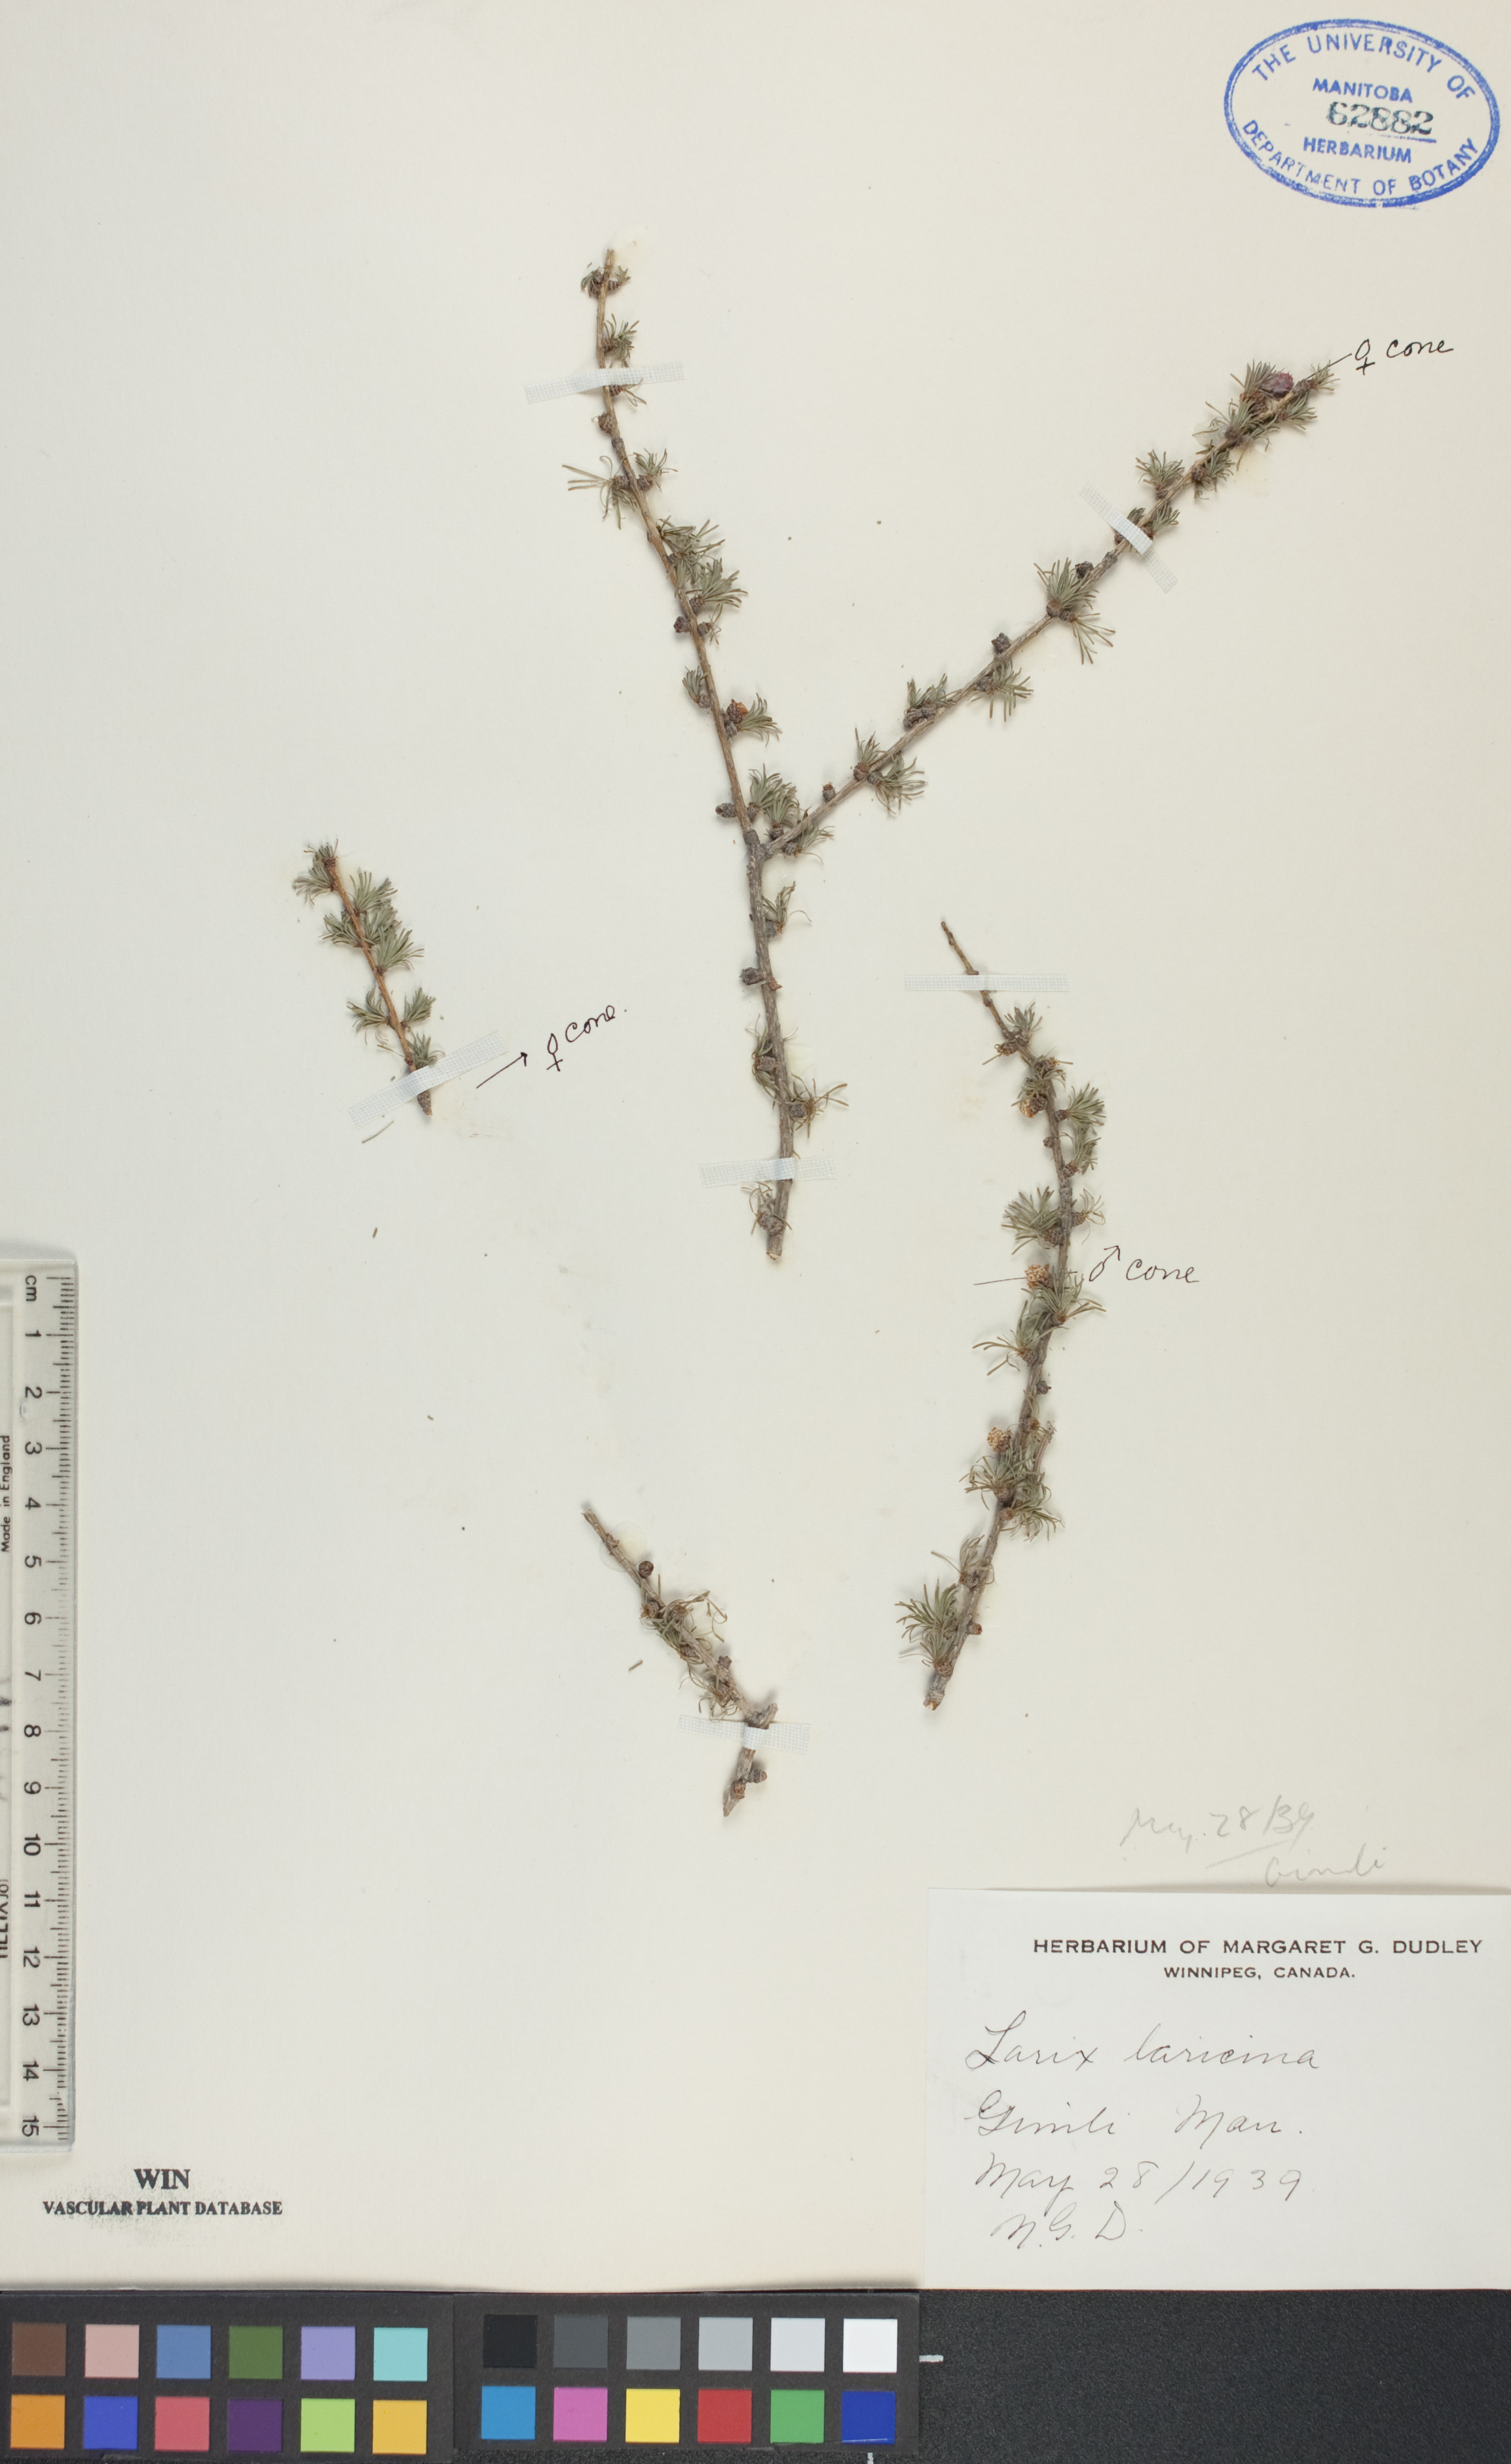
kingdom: Plantae
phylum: Tracheophyta
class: Pinopsida
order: Pinales
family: Pinaceae
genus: Larix
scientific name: Larix laricina
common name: American larch
